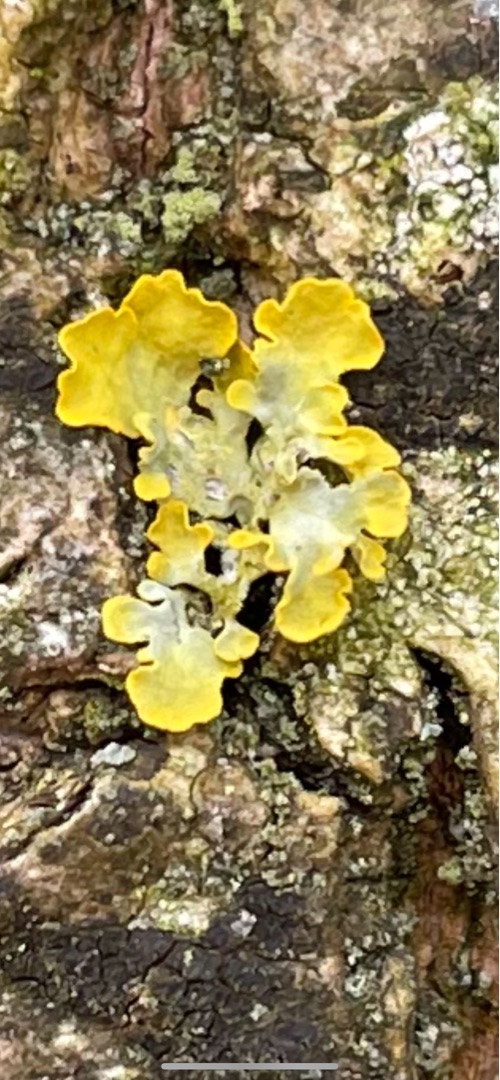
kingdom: Fungi
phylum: Ascomycota
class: Lecanoromycetes
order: Teloschistales
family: Teloschistaceae
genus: Xanthoria
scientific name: Xanthoria parietina
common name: Almindelig væggelav
